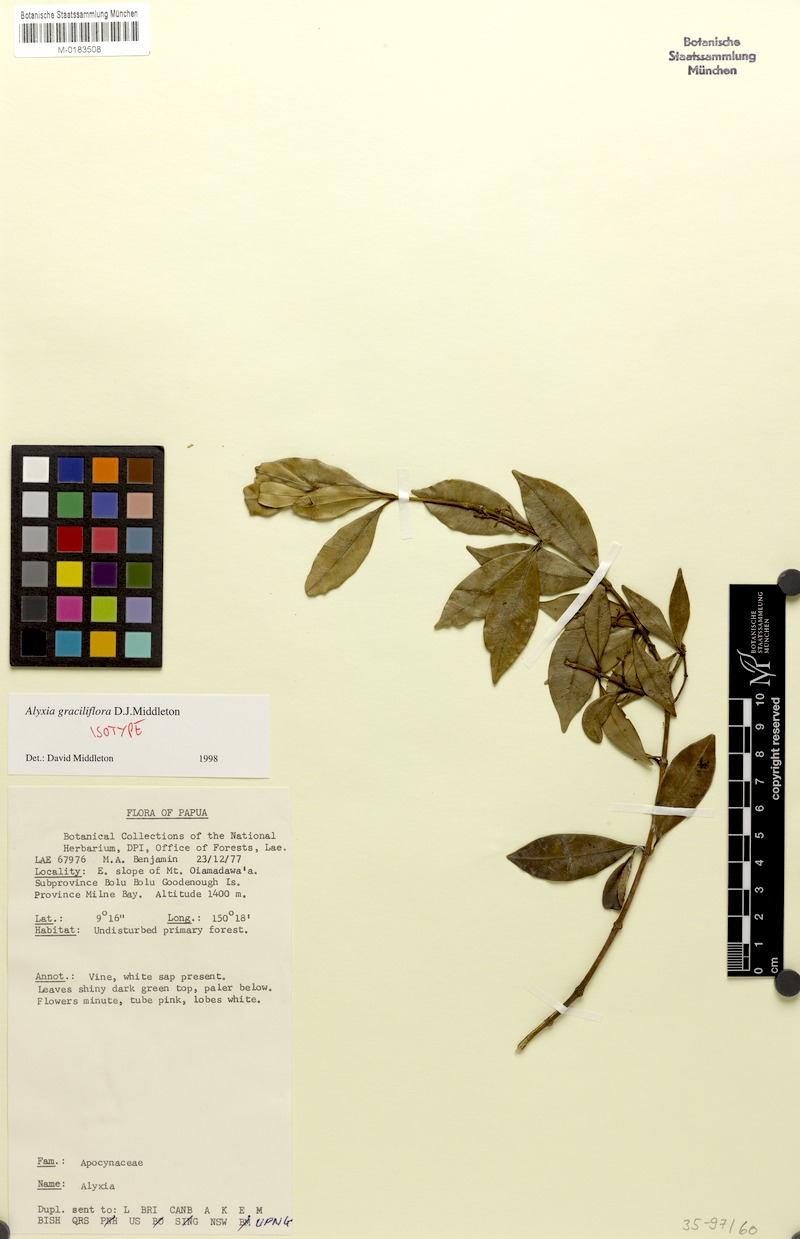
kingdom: Plantae
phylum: Tracheophyta
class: Magnoliopsida
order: Gentianales
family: Apocynaceae
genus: Alyxia
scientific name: Alyxia graciliflora
